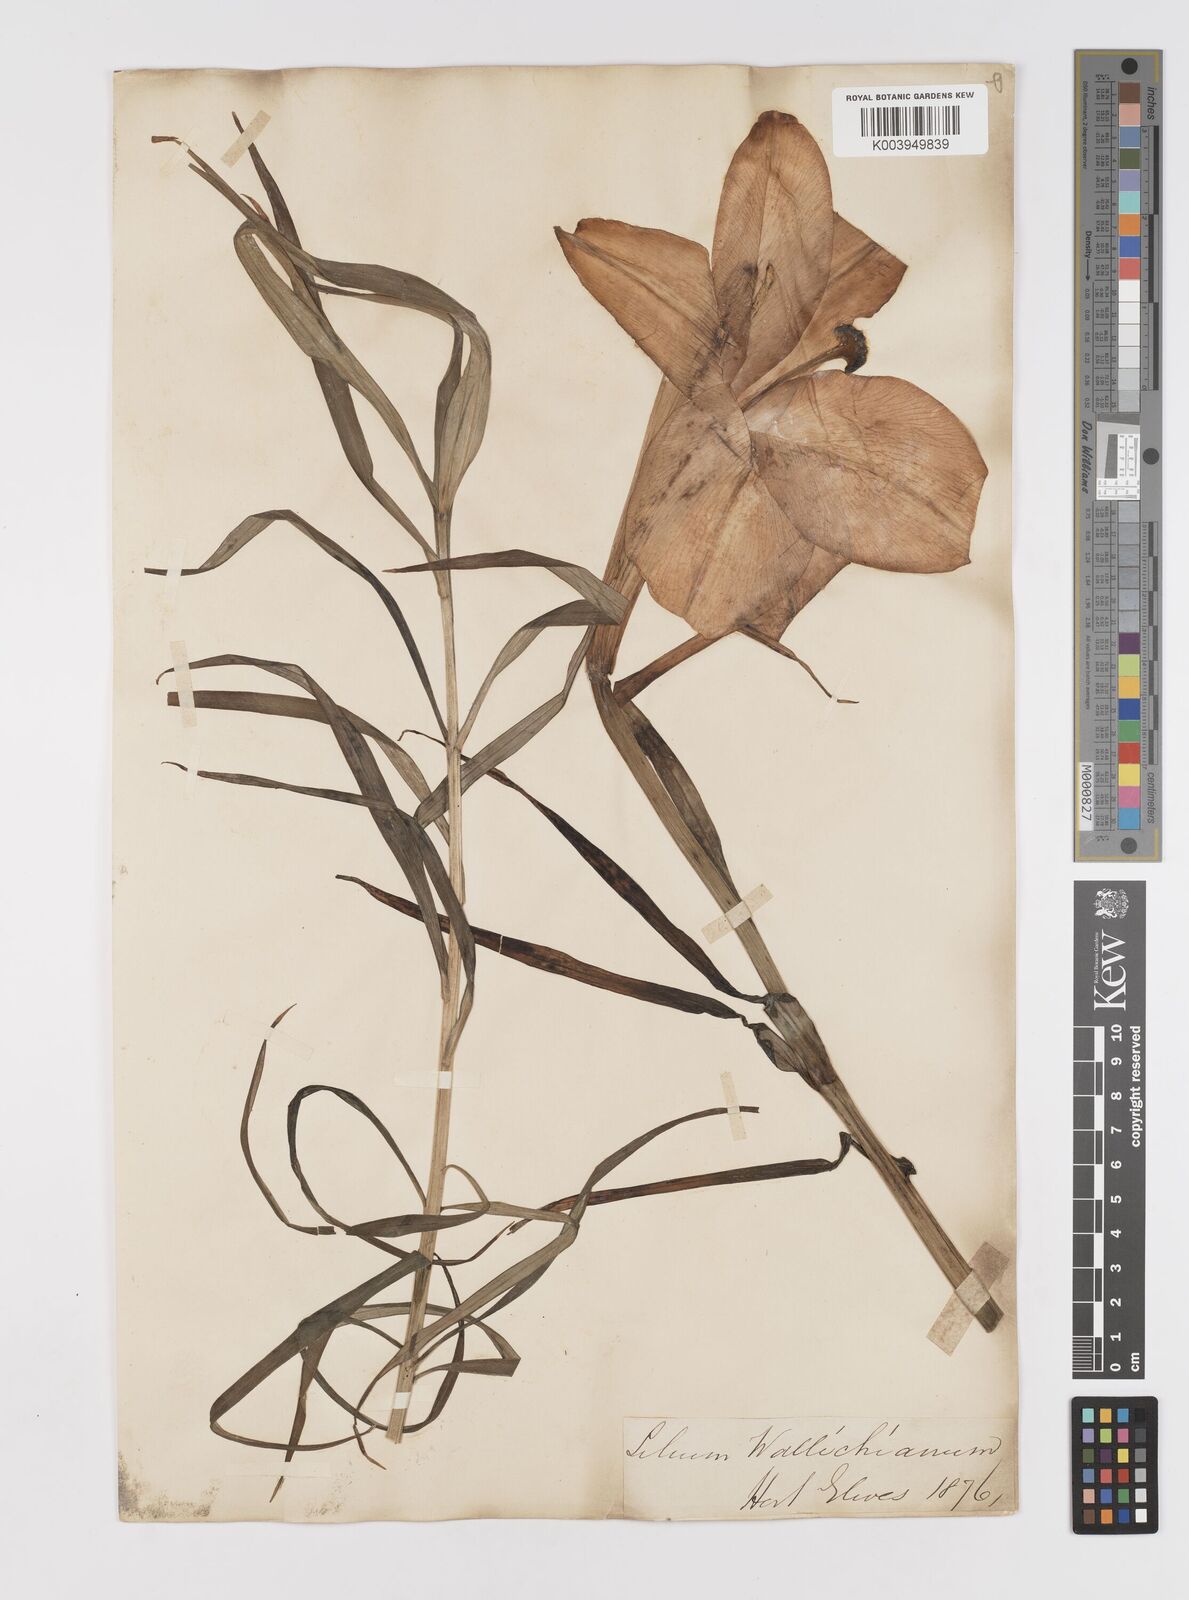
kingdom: Plantae
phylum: Tracheophyta
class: Liliopsida
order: Liliales
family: Liliaceae
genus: Lilium
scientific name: Lilium wallichianum
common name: Wallich's lily
